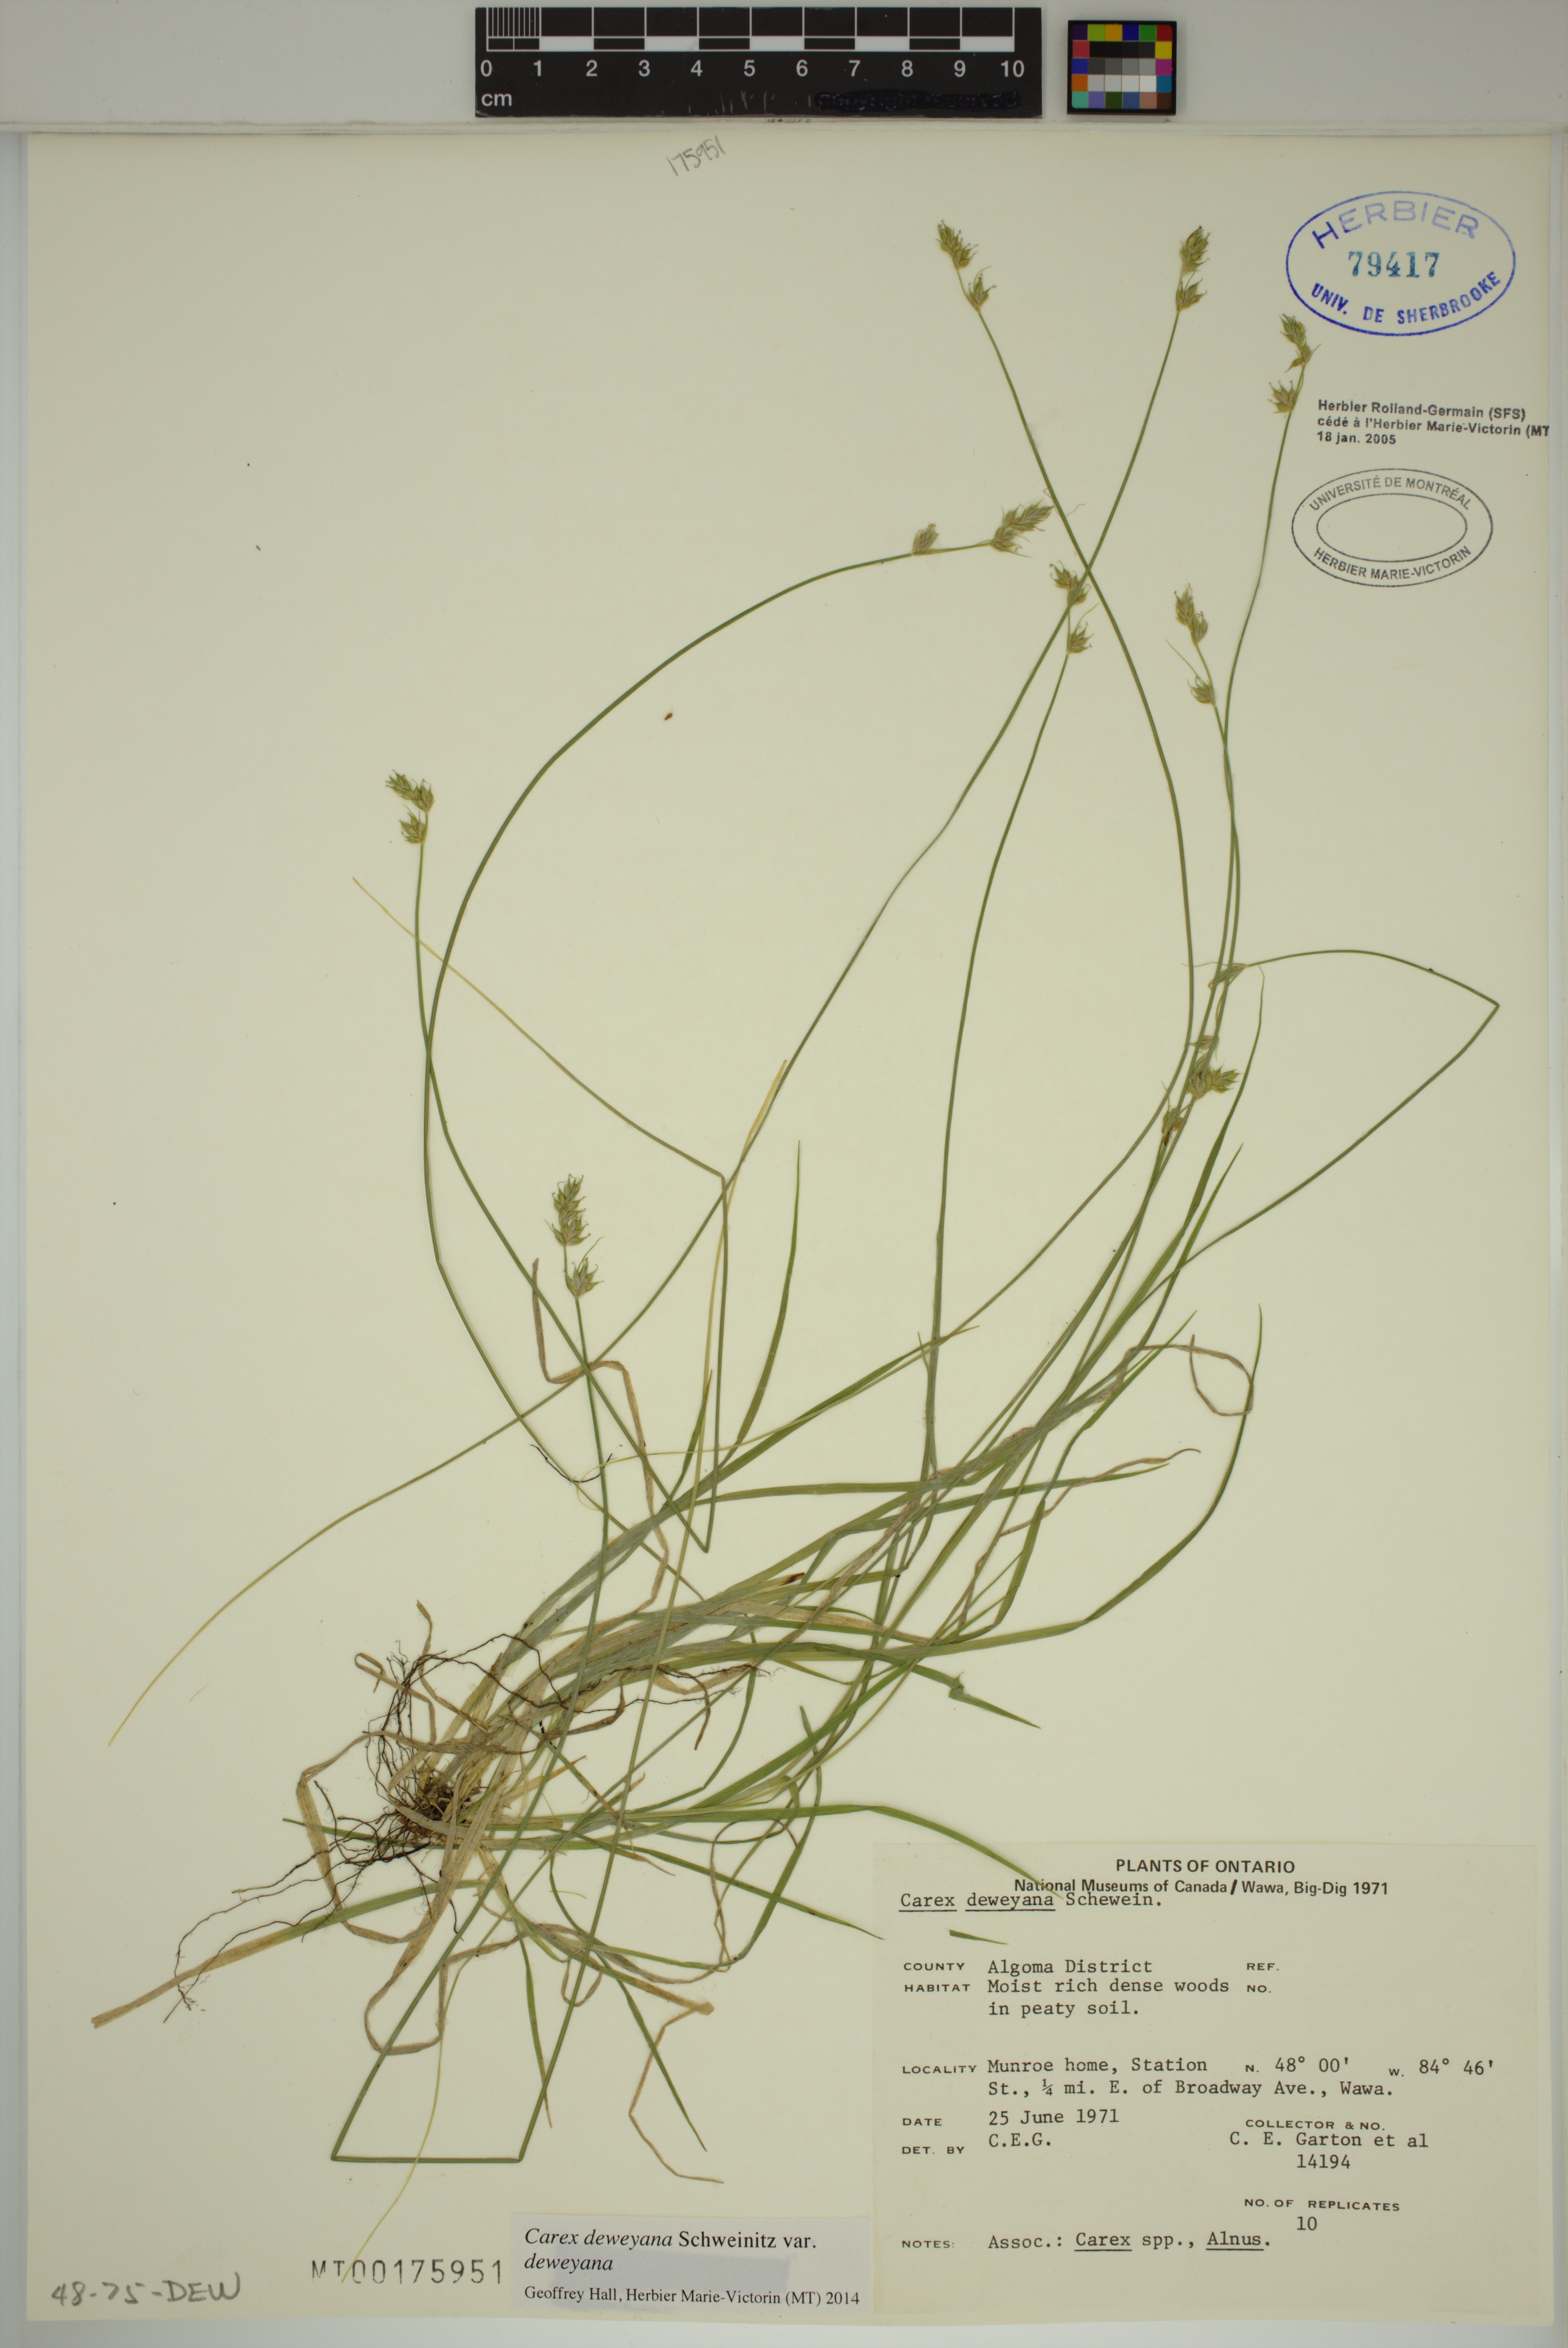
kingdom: Plantae
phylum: Tracheophyta
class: Liliopsida
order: Poales
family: Cyperaceae
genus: Carex
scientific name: Carex deweyana
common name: Dewey's sedge
